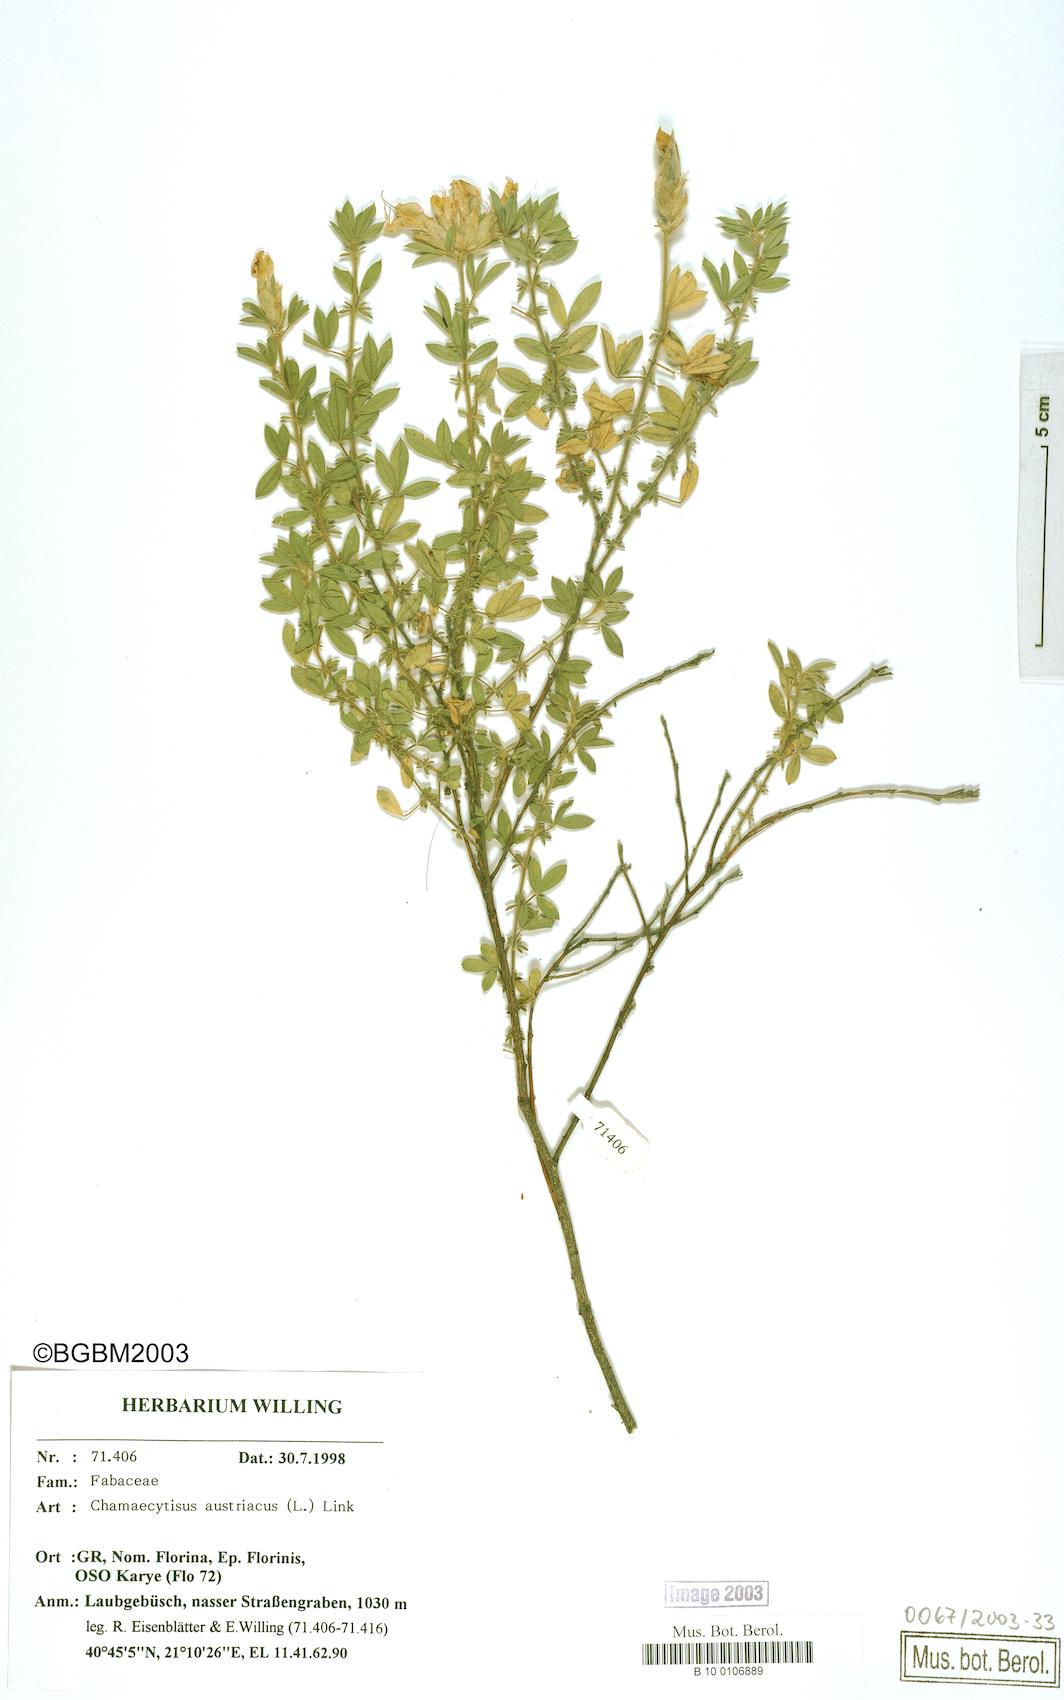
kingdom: Plantae
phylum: Tracheophyta
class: Magnoliopsida
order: Fabales
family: Fabaceae
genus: Chamaecytisus
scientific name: Chamaecytisus austriacus
